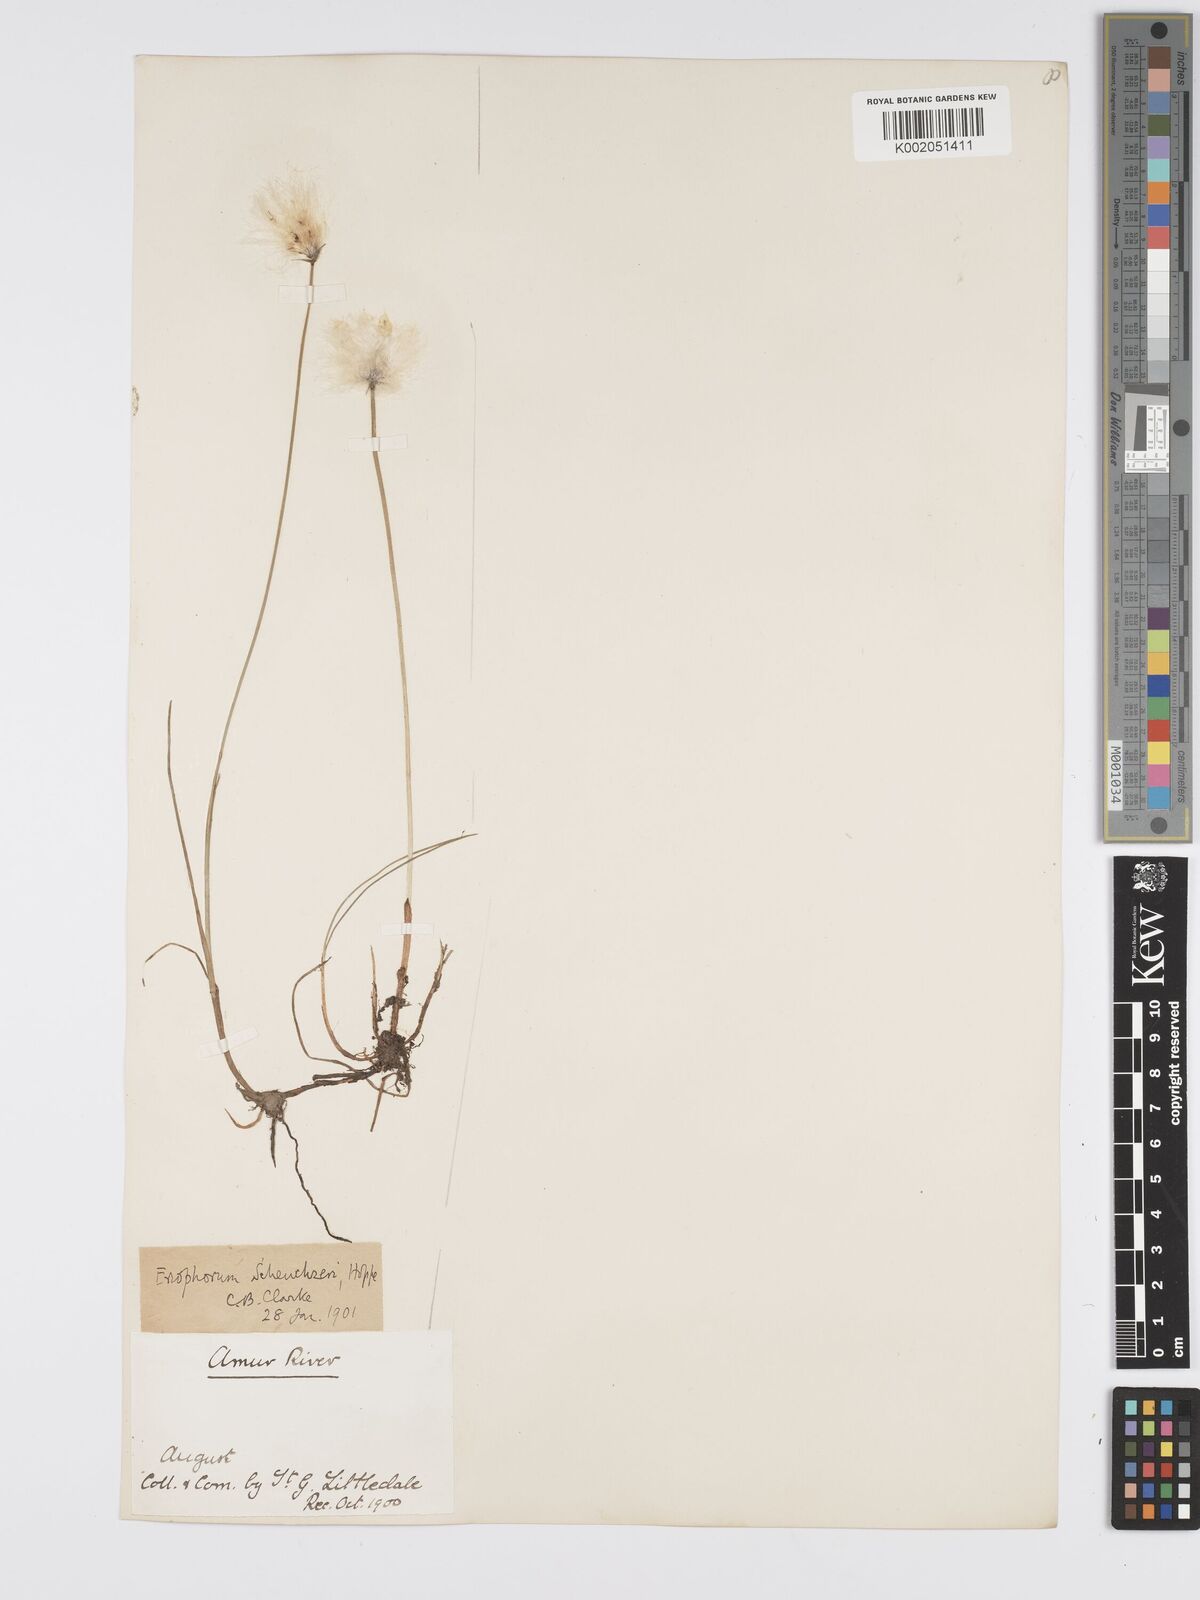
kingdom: Plantae
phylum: Tracheophyta
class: Liliopsida
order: Poales
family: Cyperaceae
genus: Eriophorum
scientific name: Eriophorum scheuchzeri
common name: Scheuchzer's cottongrass
